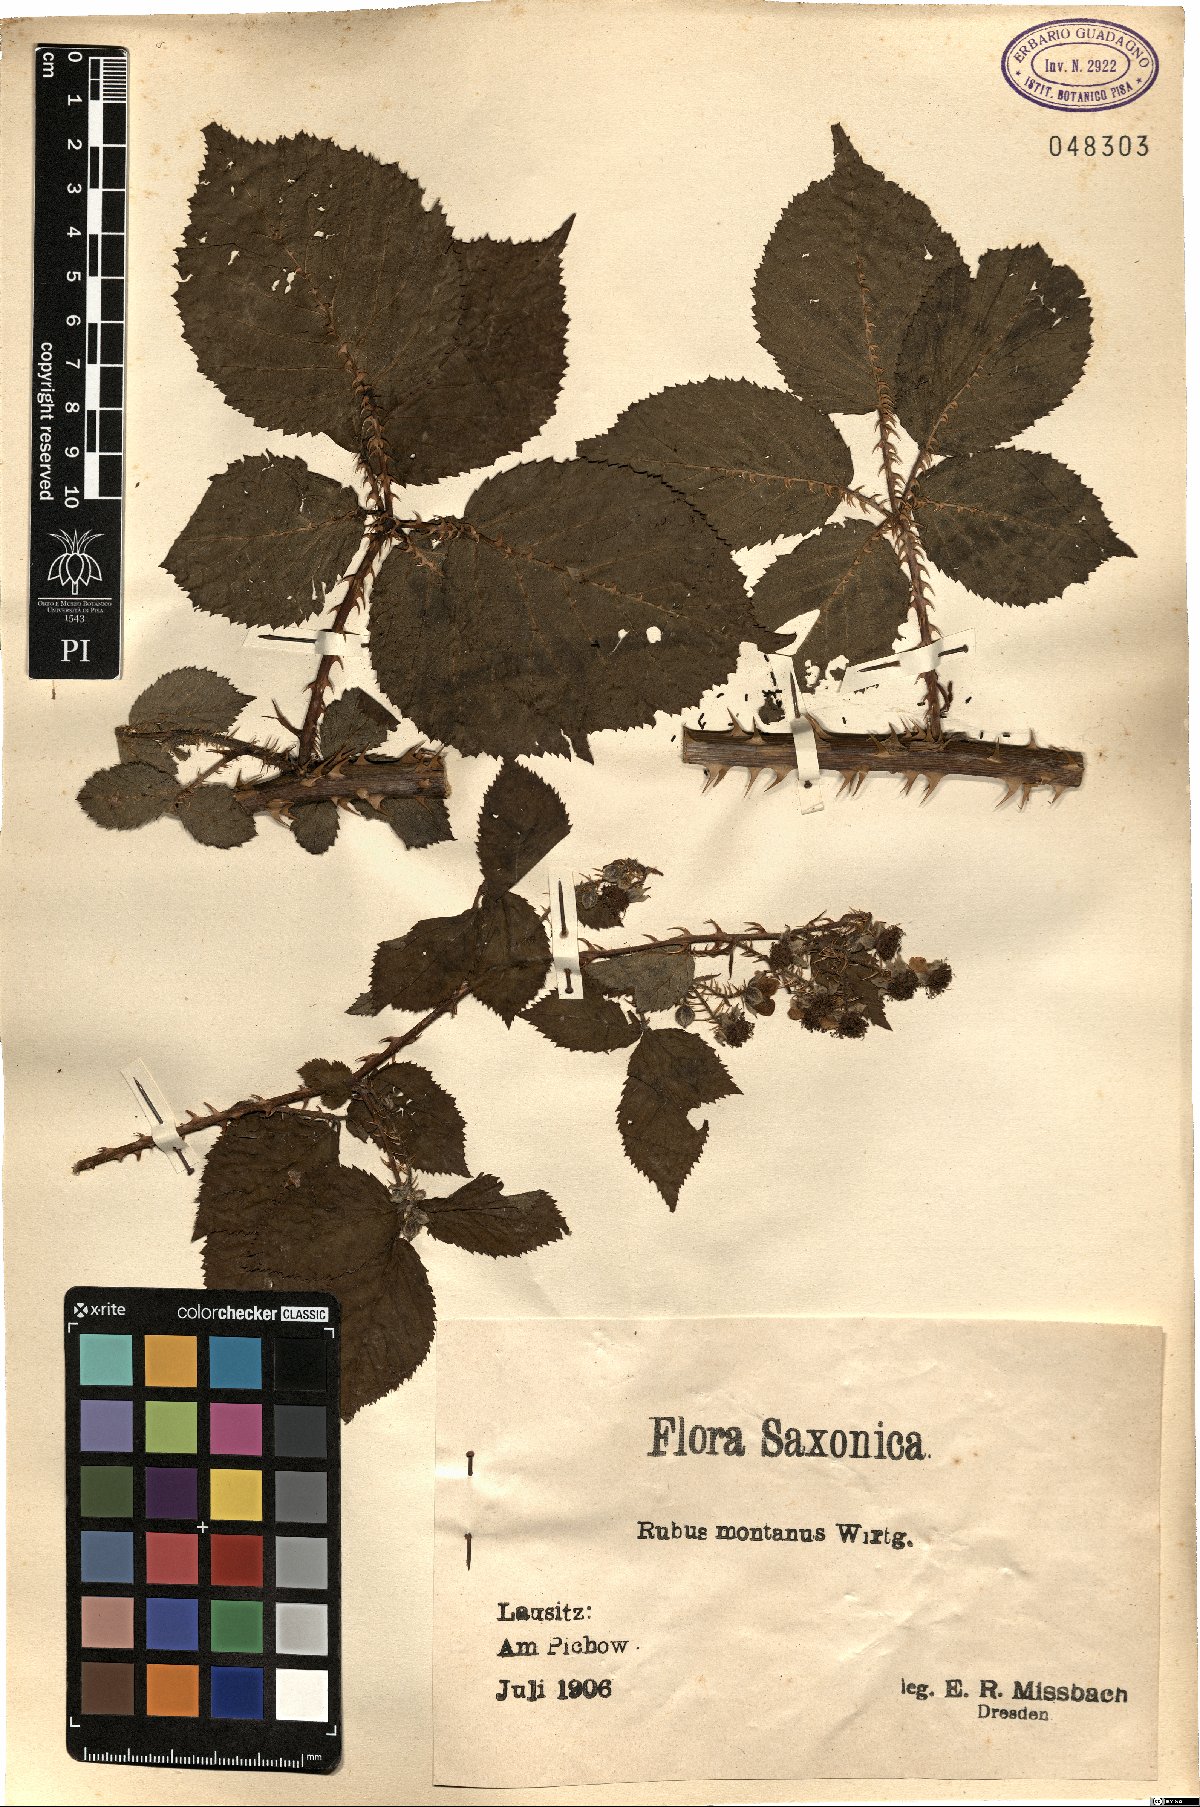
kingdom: Plantae
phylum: Tracheophyta
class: Magnoliopsida
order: Rosales
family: Rosaceae
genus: Rubus
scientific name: Rubus montanus
